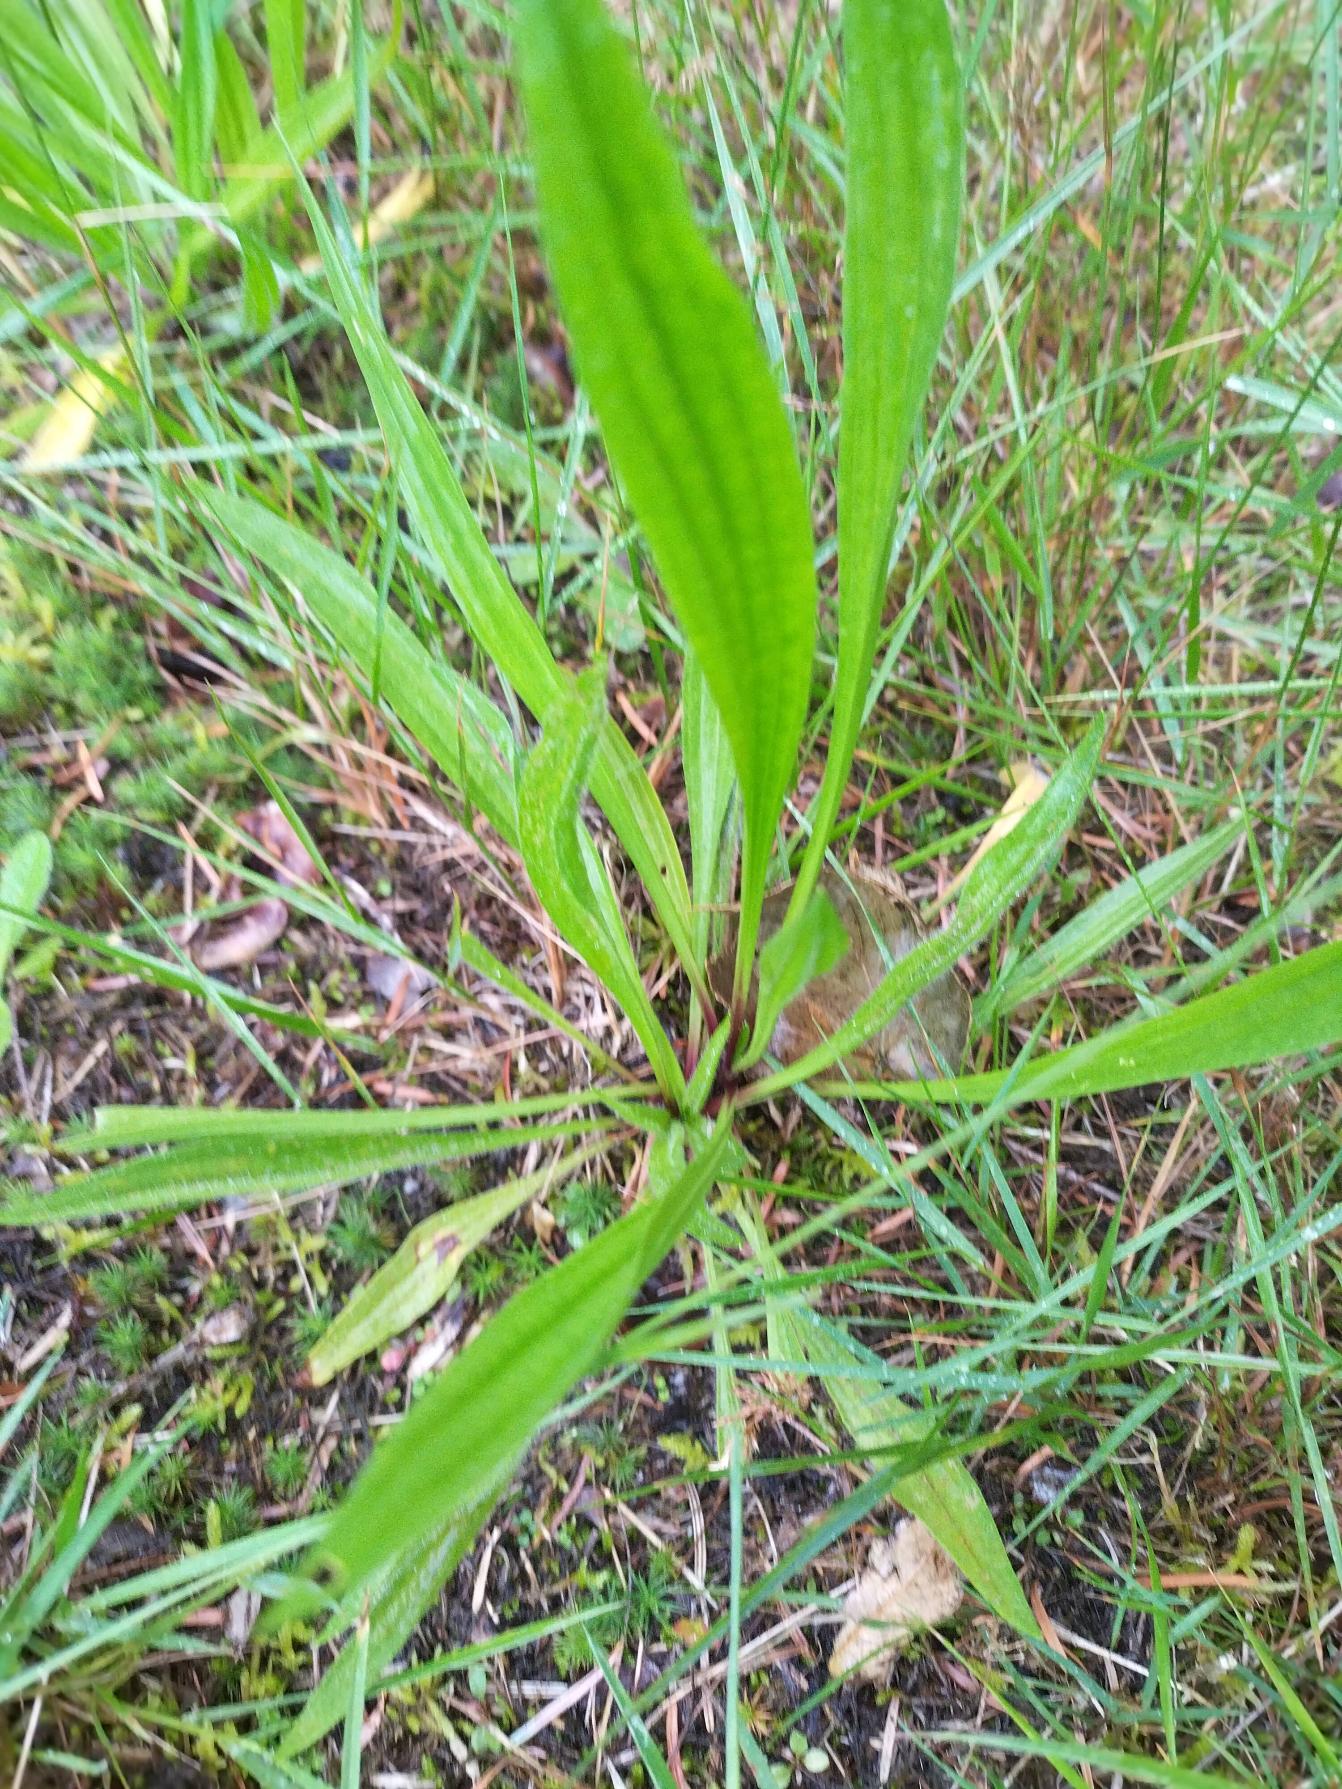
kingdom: Plantae
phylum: Tracheophyta
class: Magnoliopsida
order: Lamiales
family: Plantaginaceae
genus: Plantago
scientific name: Plantago lanceolata
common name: Lancet-vejbred
